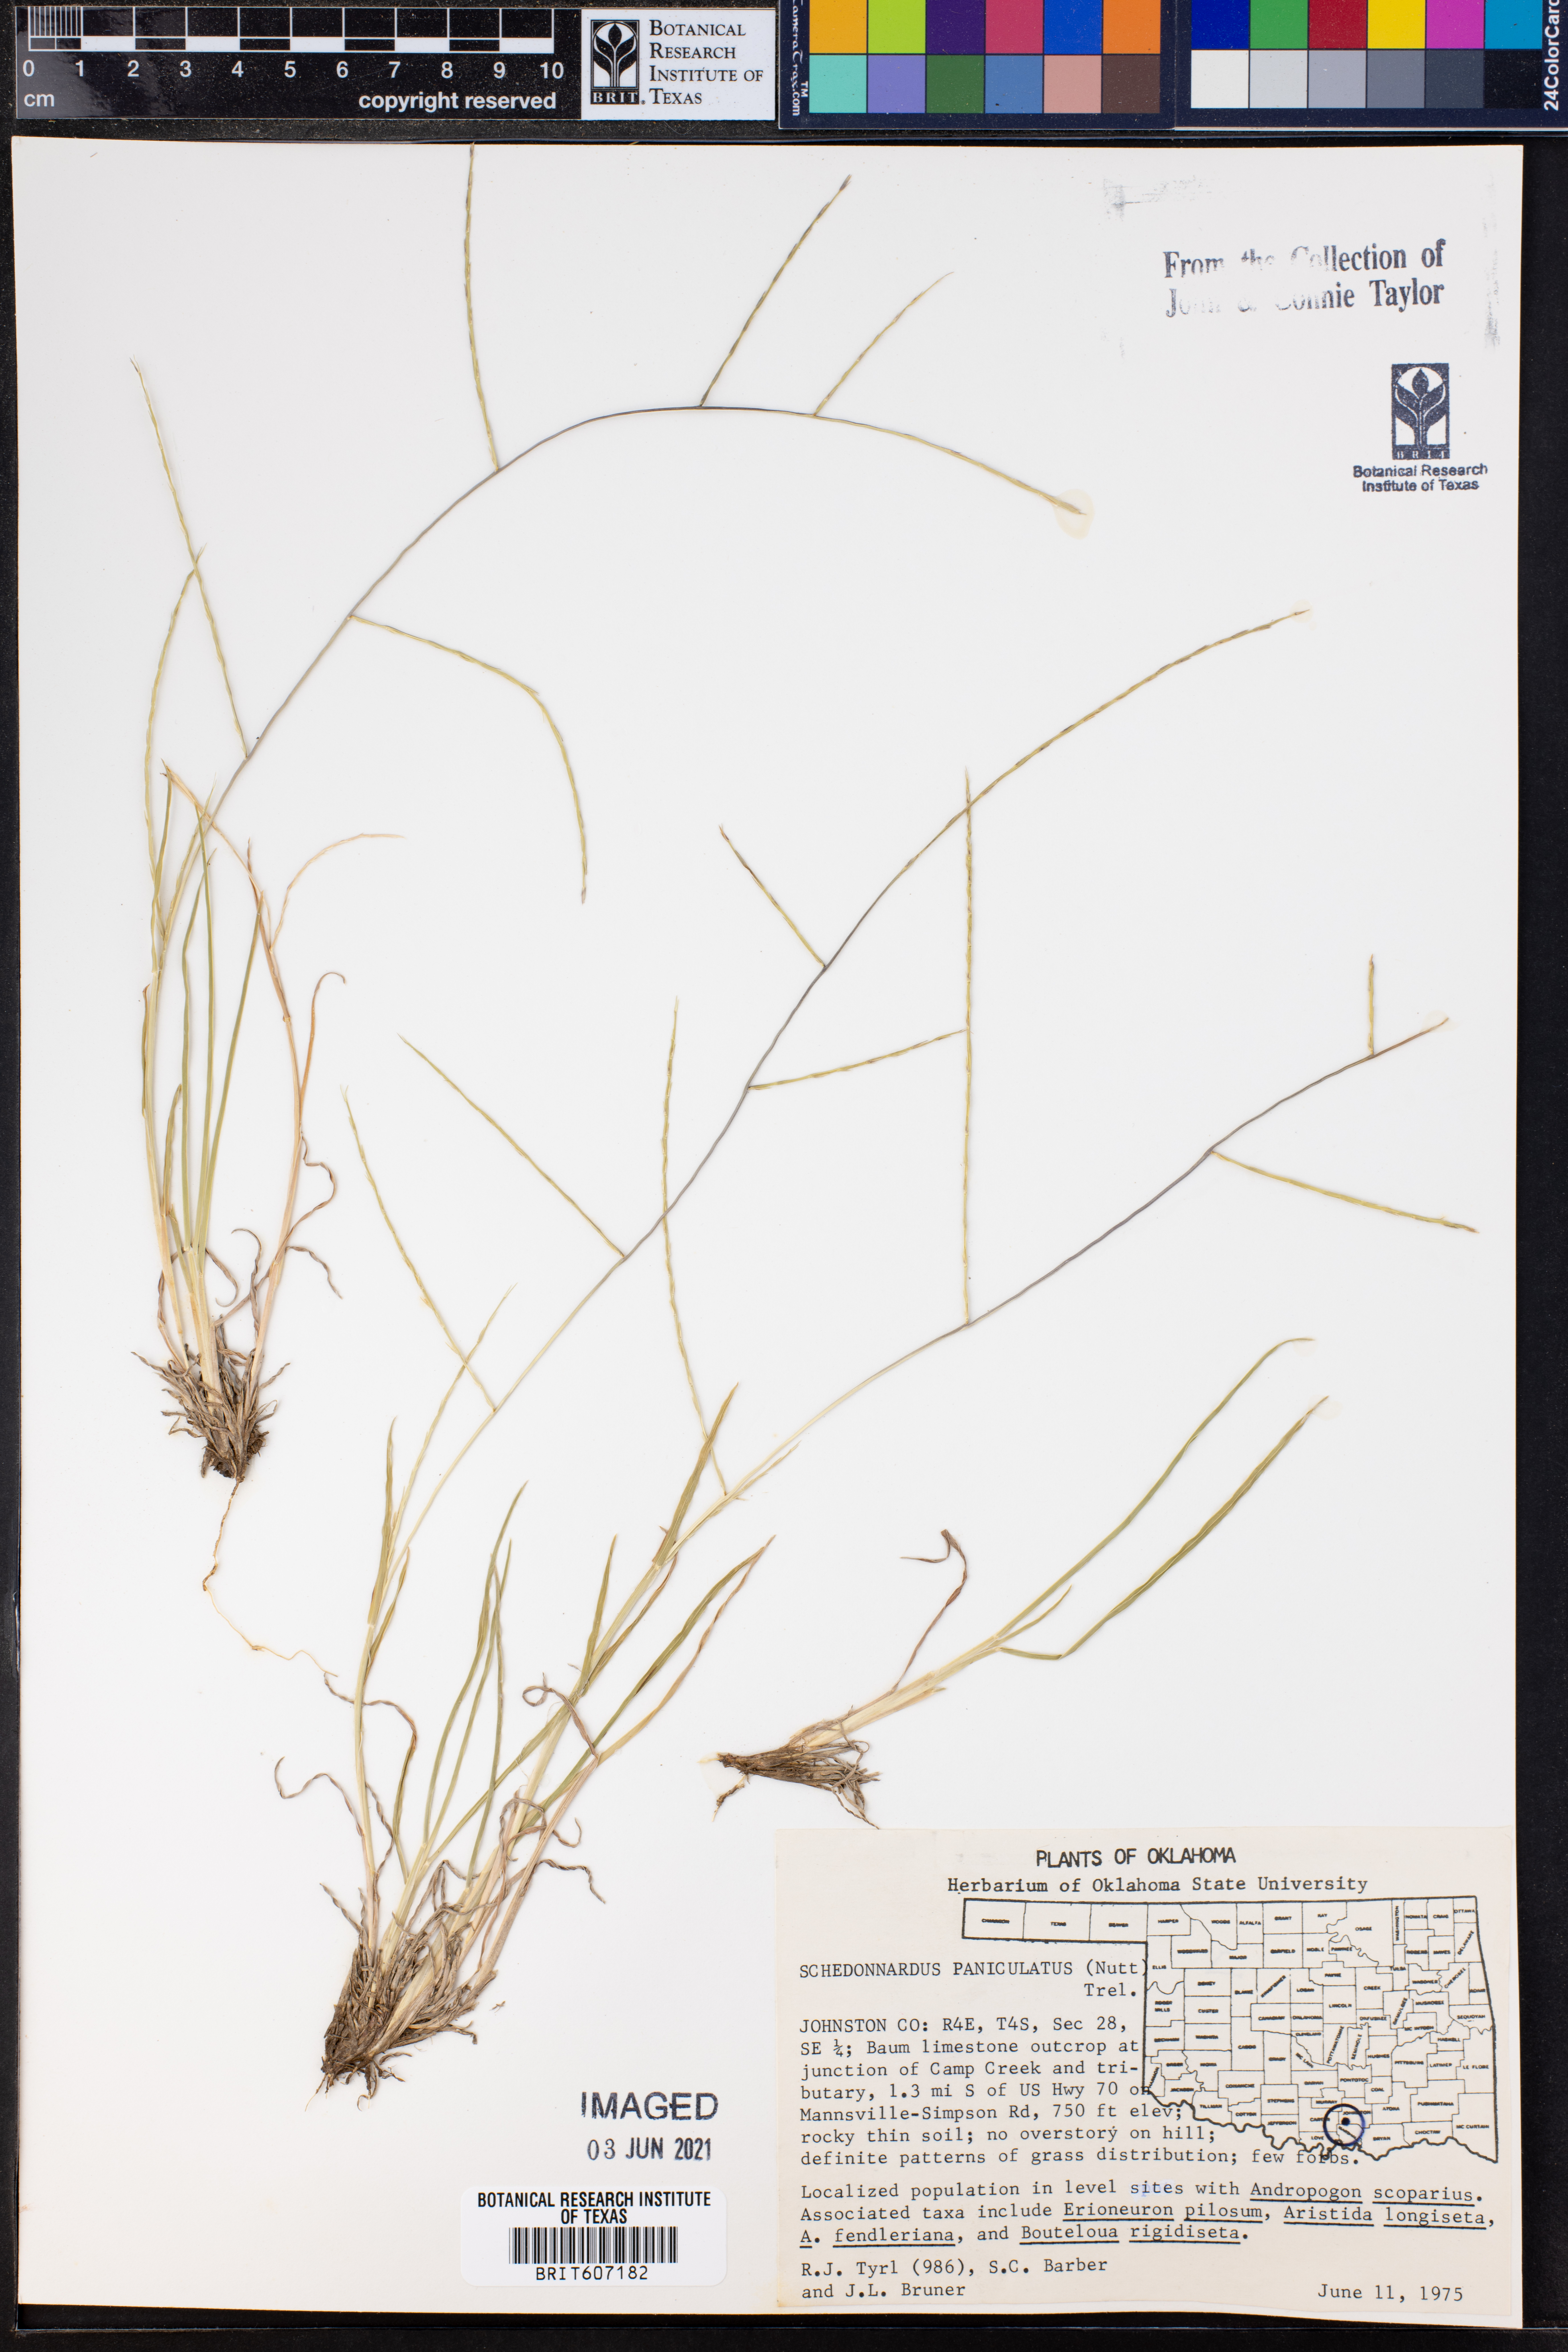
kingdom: Plantae
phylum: Tracheophyta
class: Liliopsida
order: Poales
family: Poaceae
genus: Muhlenbergia
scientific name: Muhlenbergia paniculata
